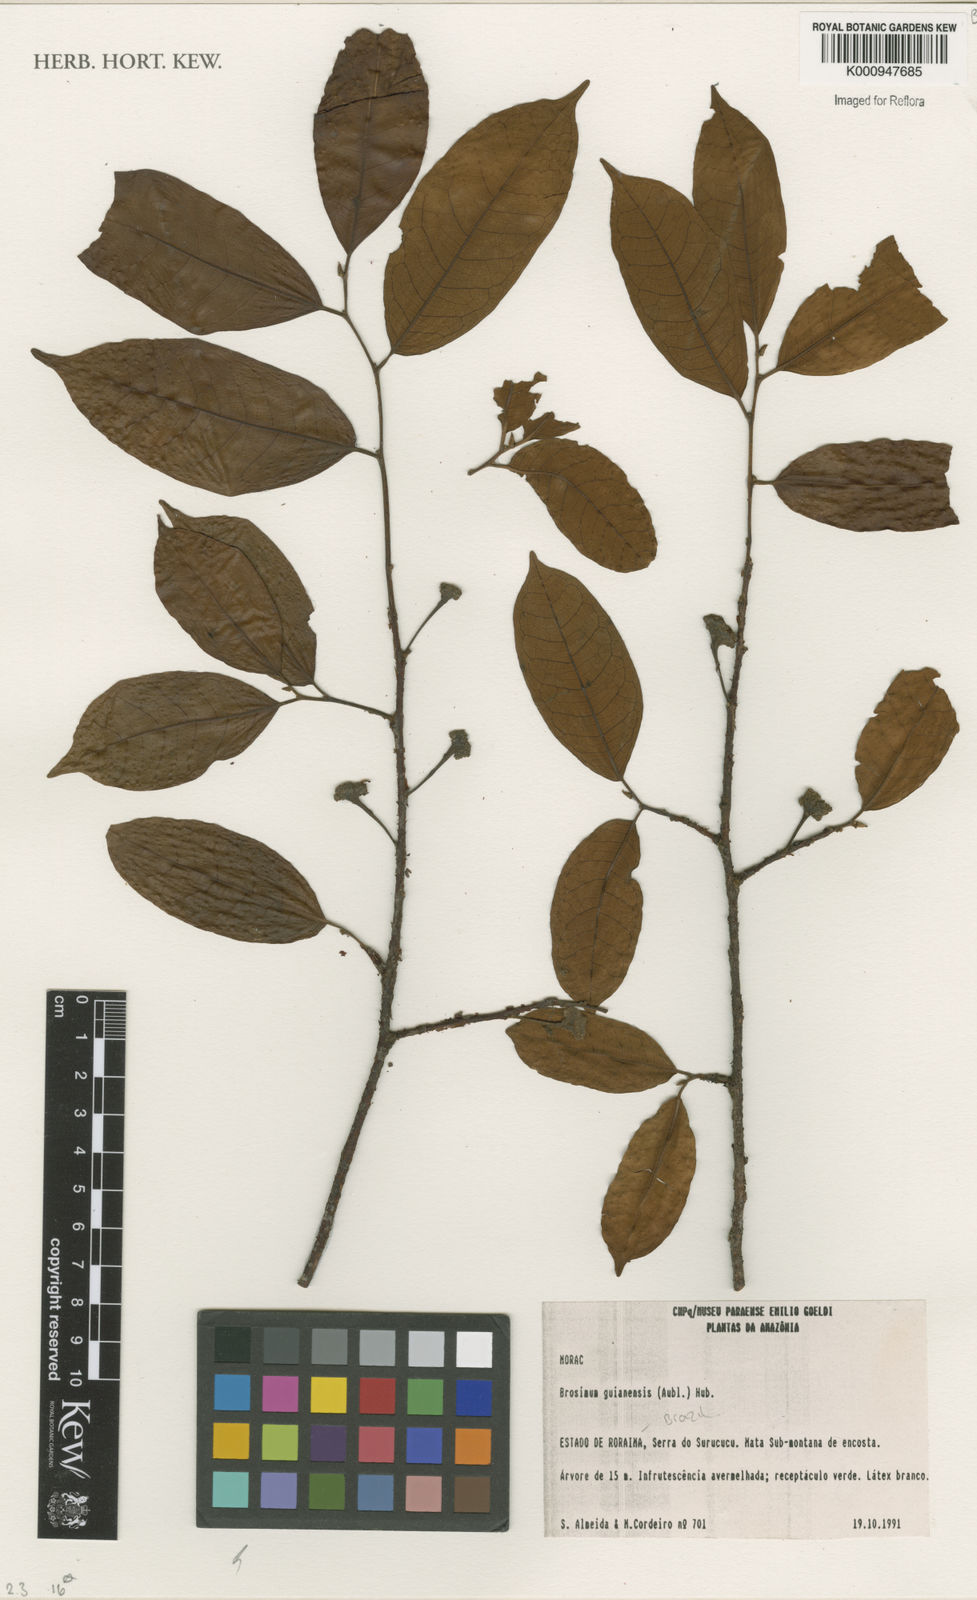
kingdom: Plantae
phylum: Tracheophyta
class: Magnoliopsida
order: Rosales
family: Moraceae
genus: Brosimum
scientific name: Brosimum
